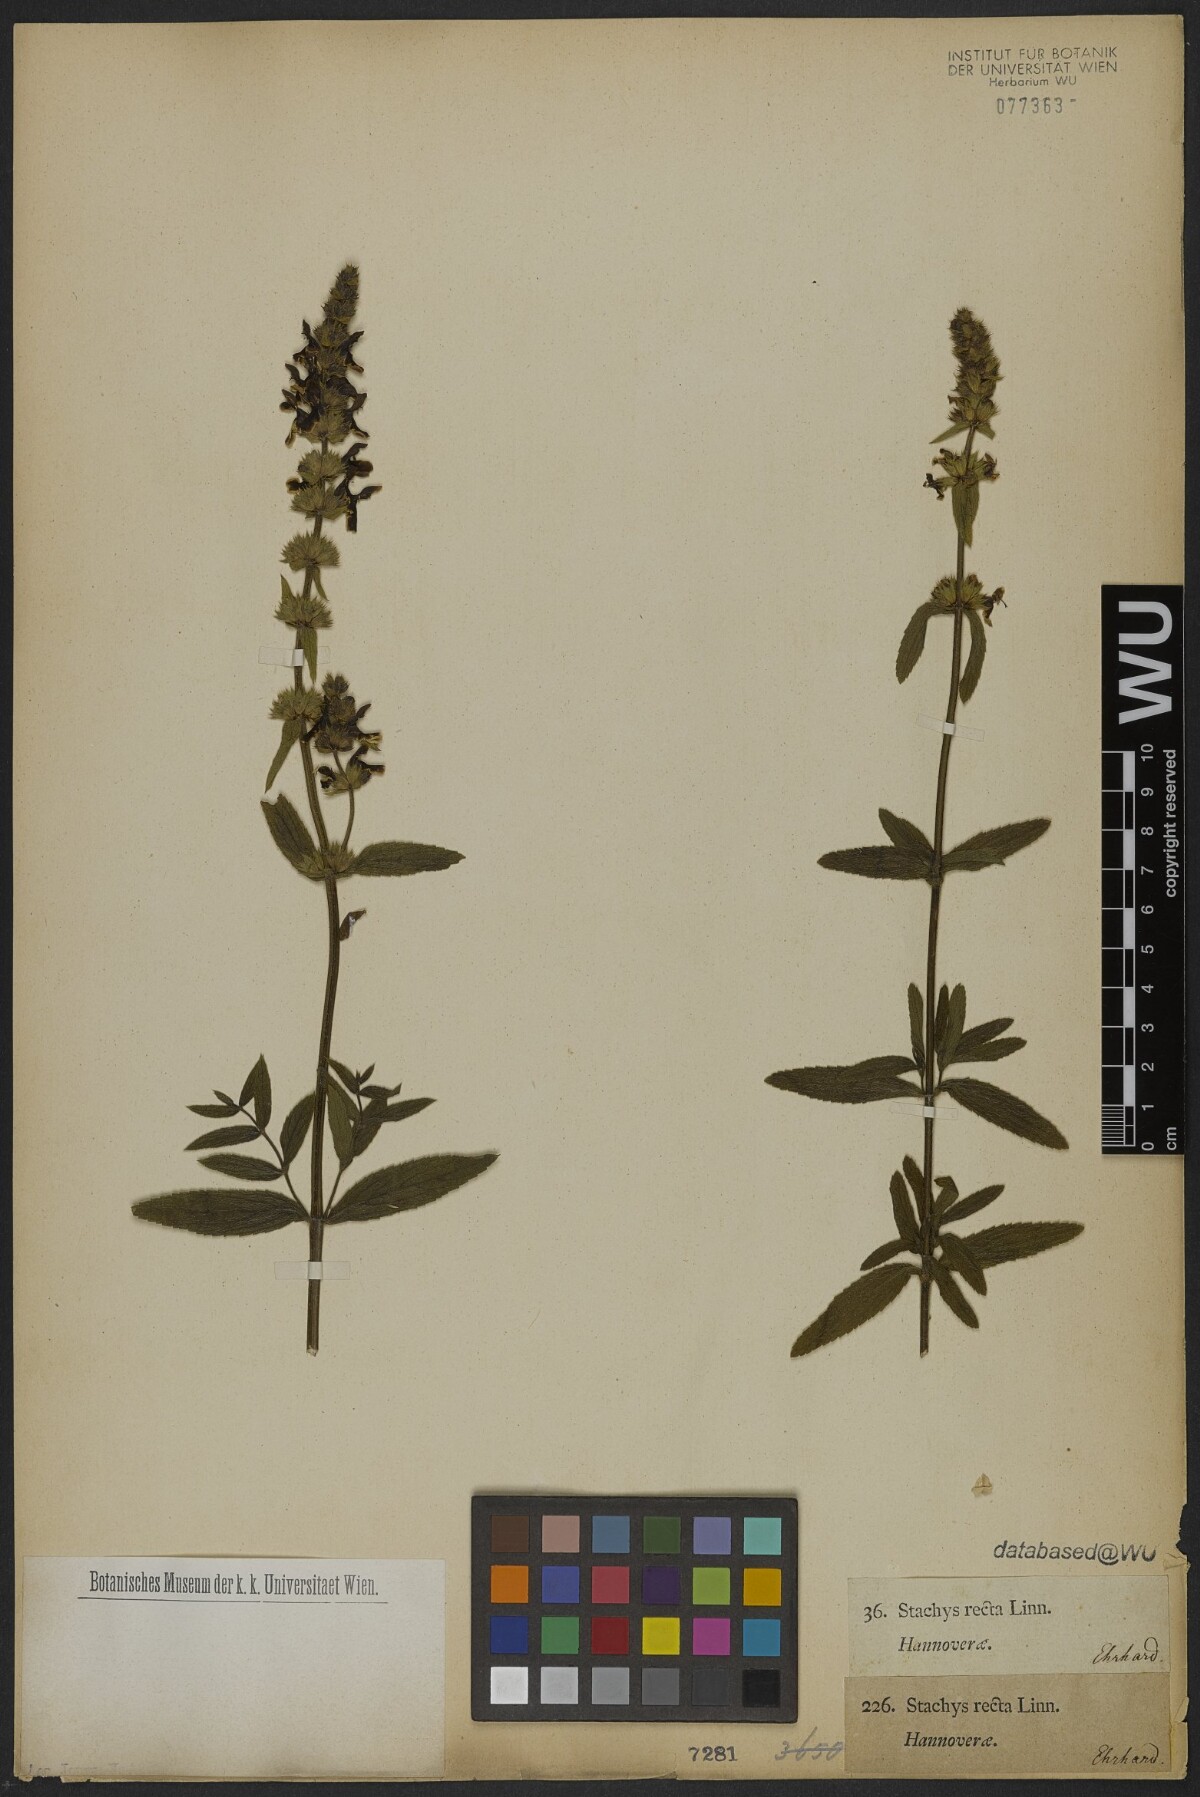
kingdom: Plantae
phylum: Tracheophyta
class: Magnoliopsida
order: Lamiales
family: Lamiaceae
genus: Stachys
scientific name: Stachys recta
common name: Perennial yellow-woundwort
